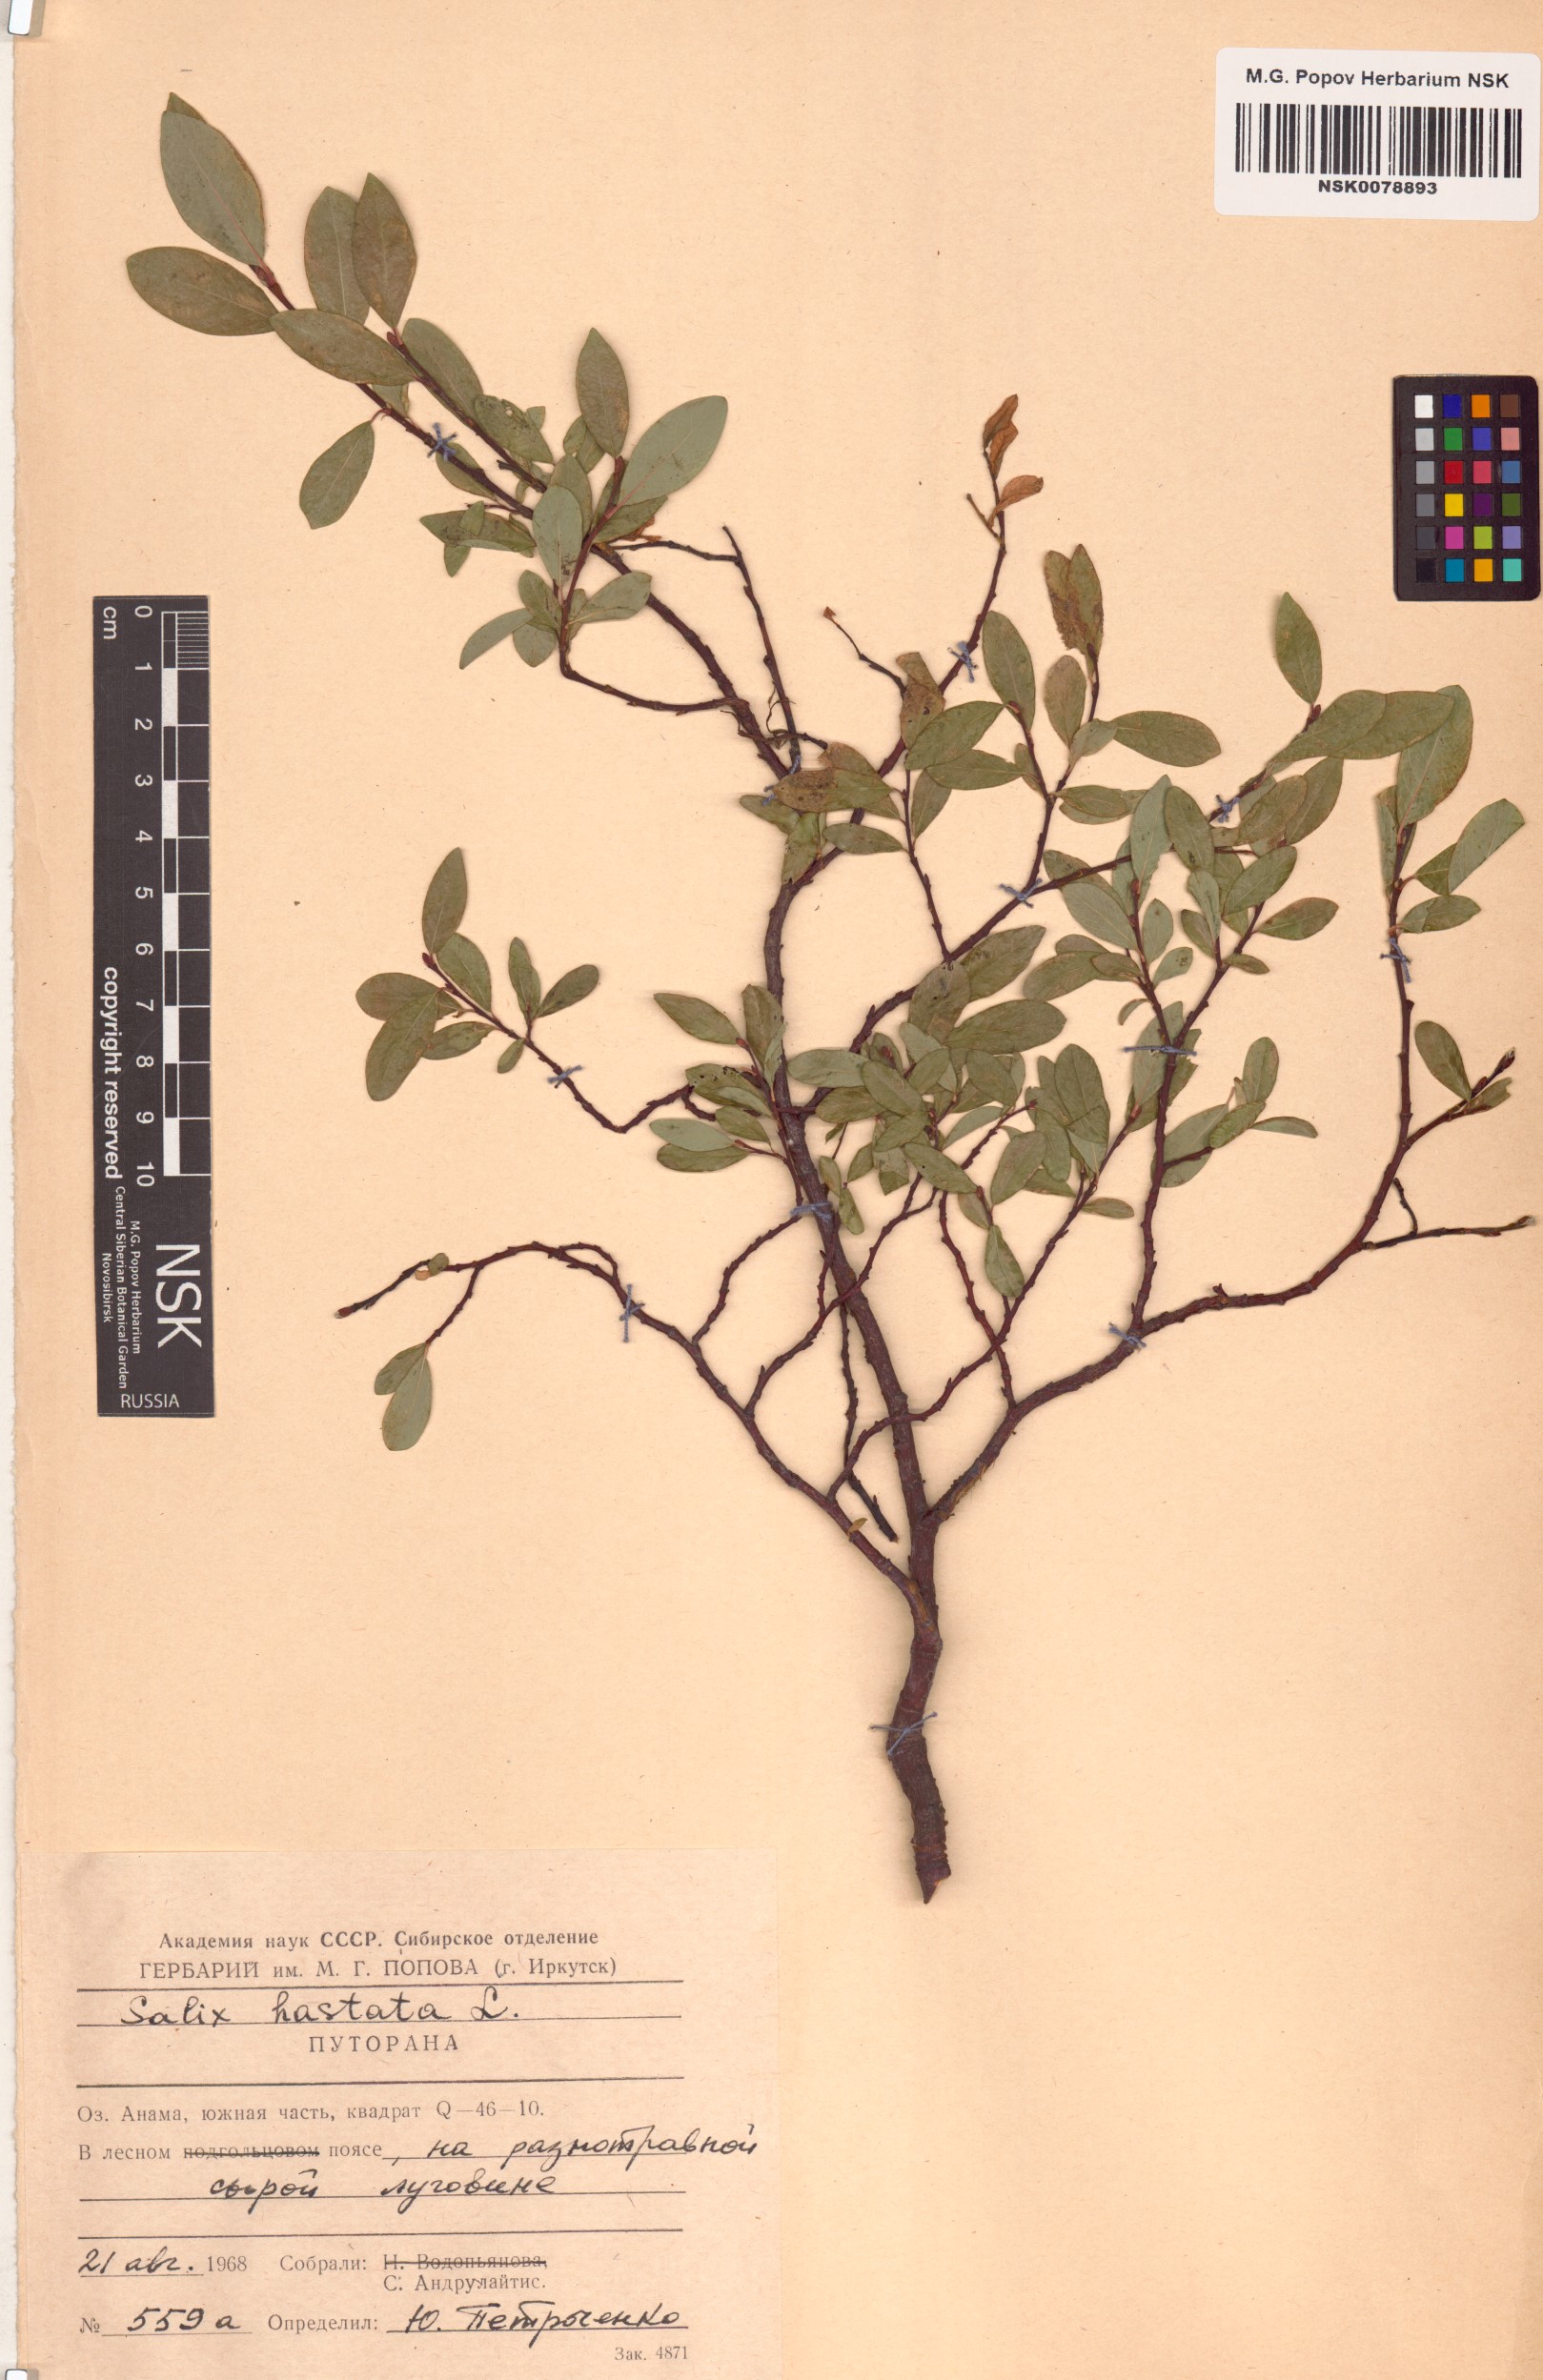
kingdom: Plantae
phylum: Tracheophyta
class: Magnoliopsida
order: Malpighiales
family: Salicaceae
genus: Salix
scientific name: Salix hastata
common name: Halberd willow
